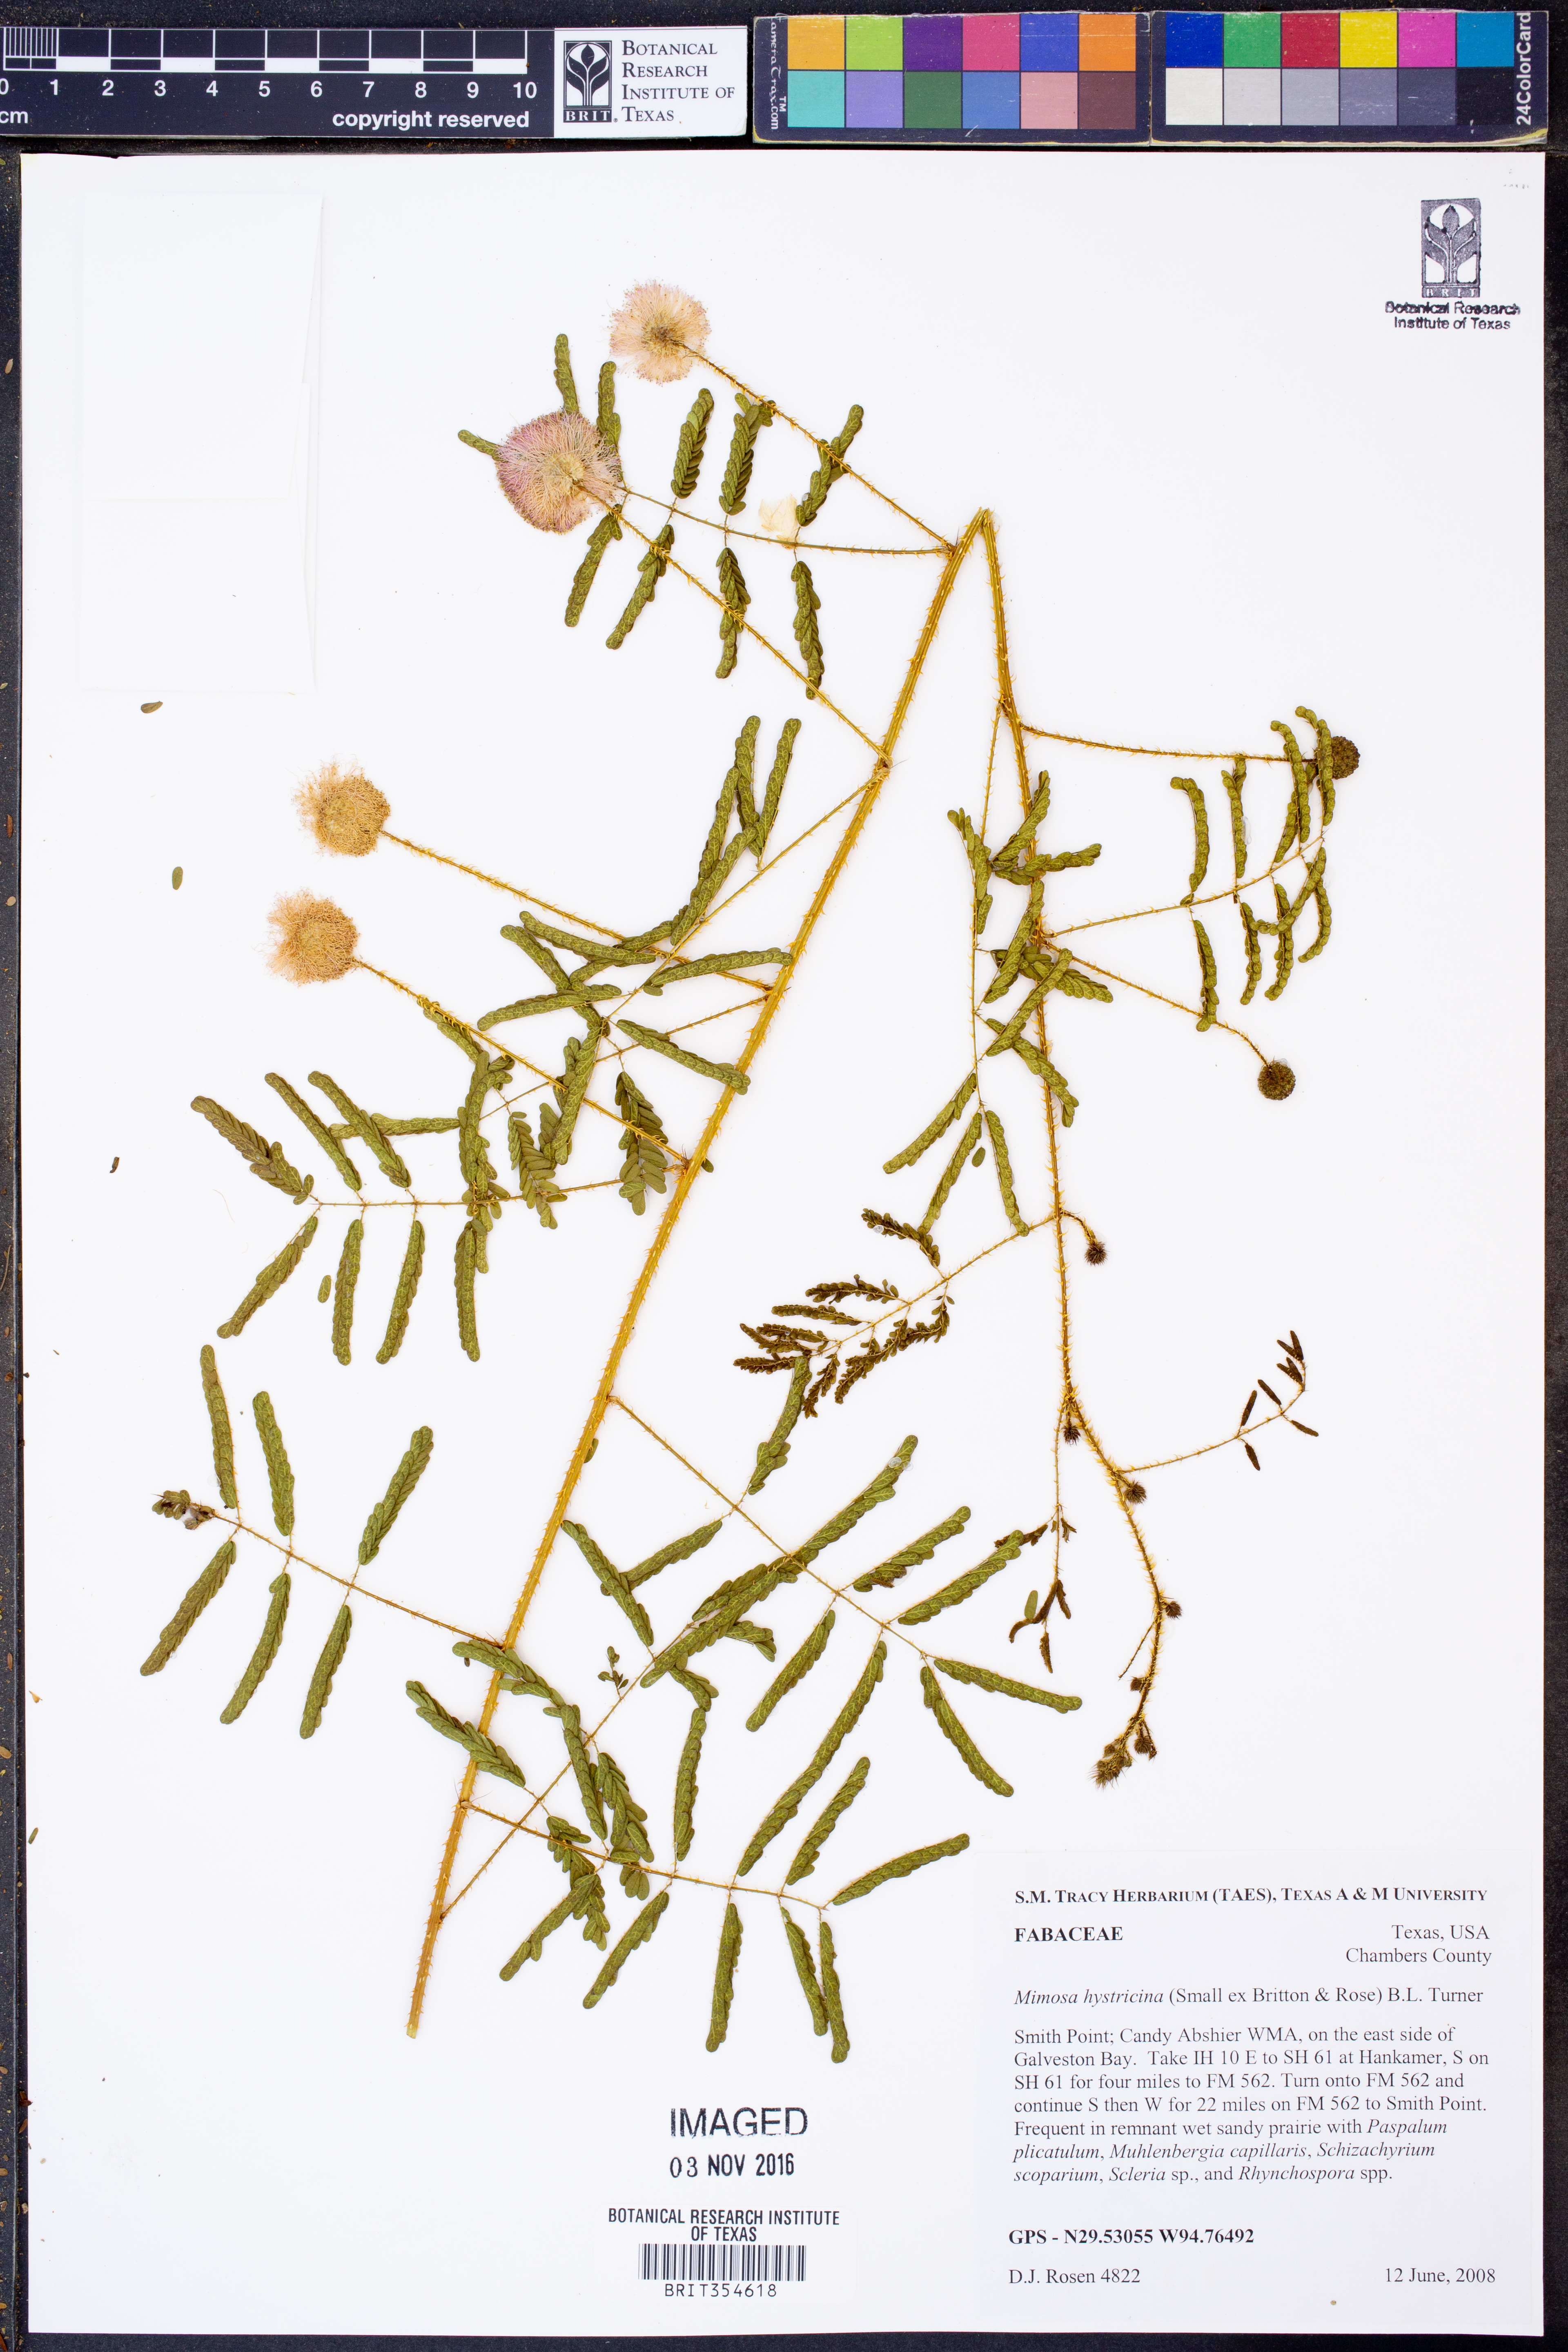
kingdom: Plantae
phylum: Tracheophyta
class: Magnoliopsida
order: Fabales
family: Fabaceae
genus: Mimosa
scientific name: Mimosa hystricina
